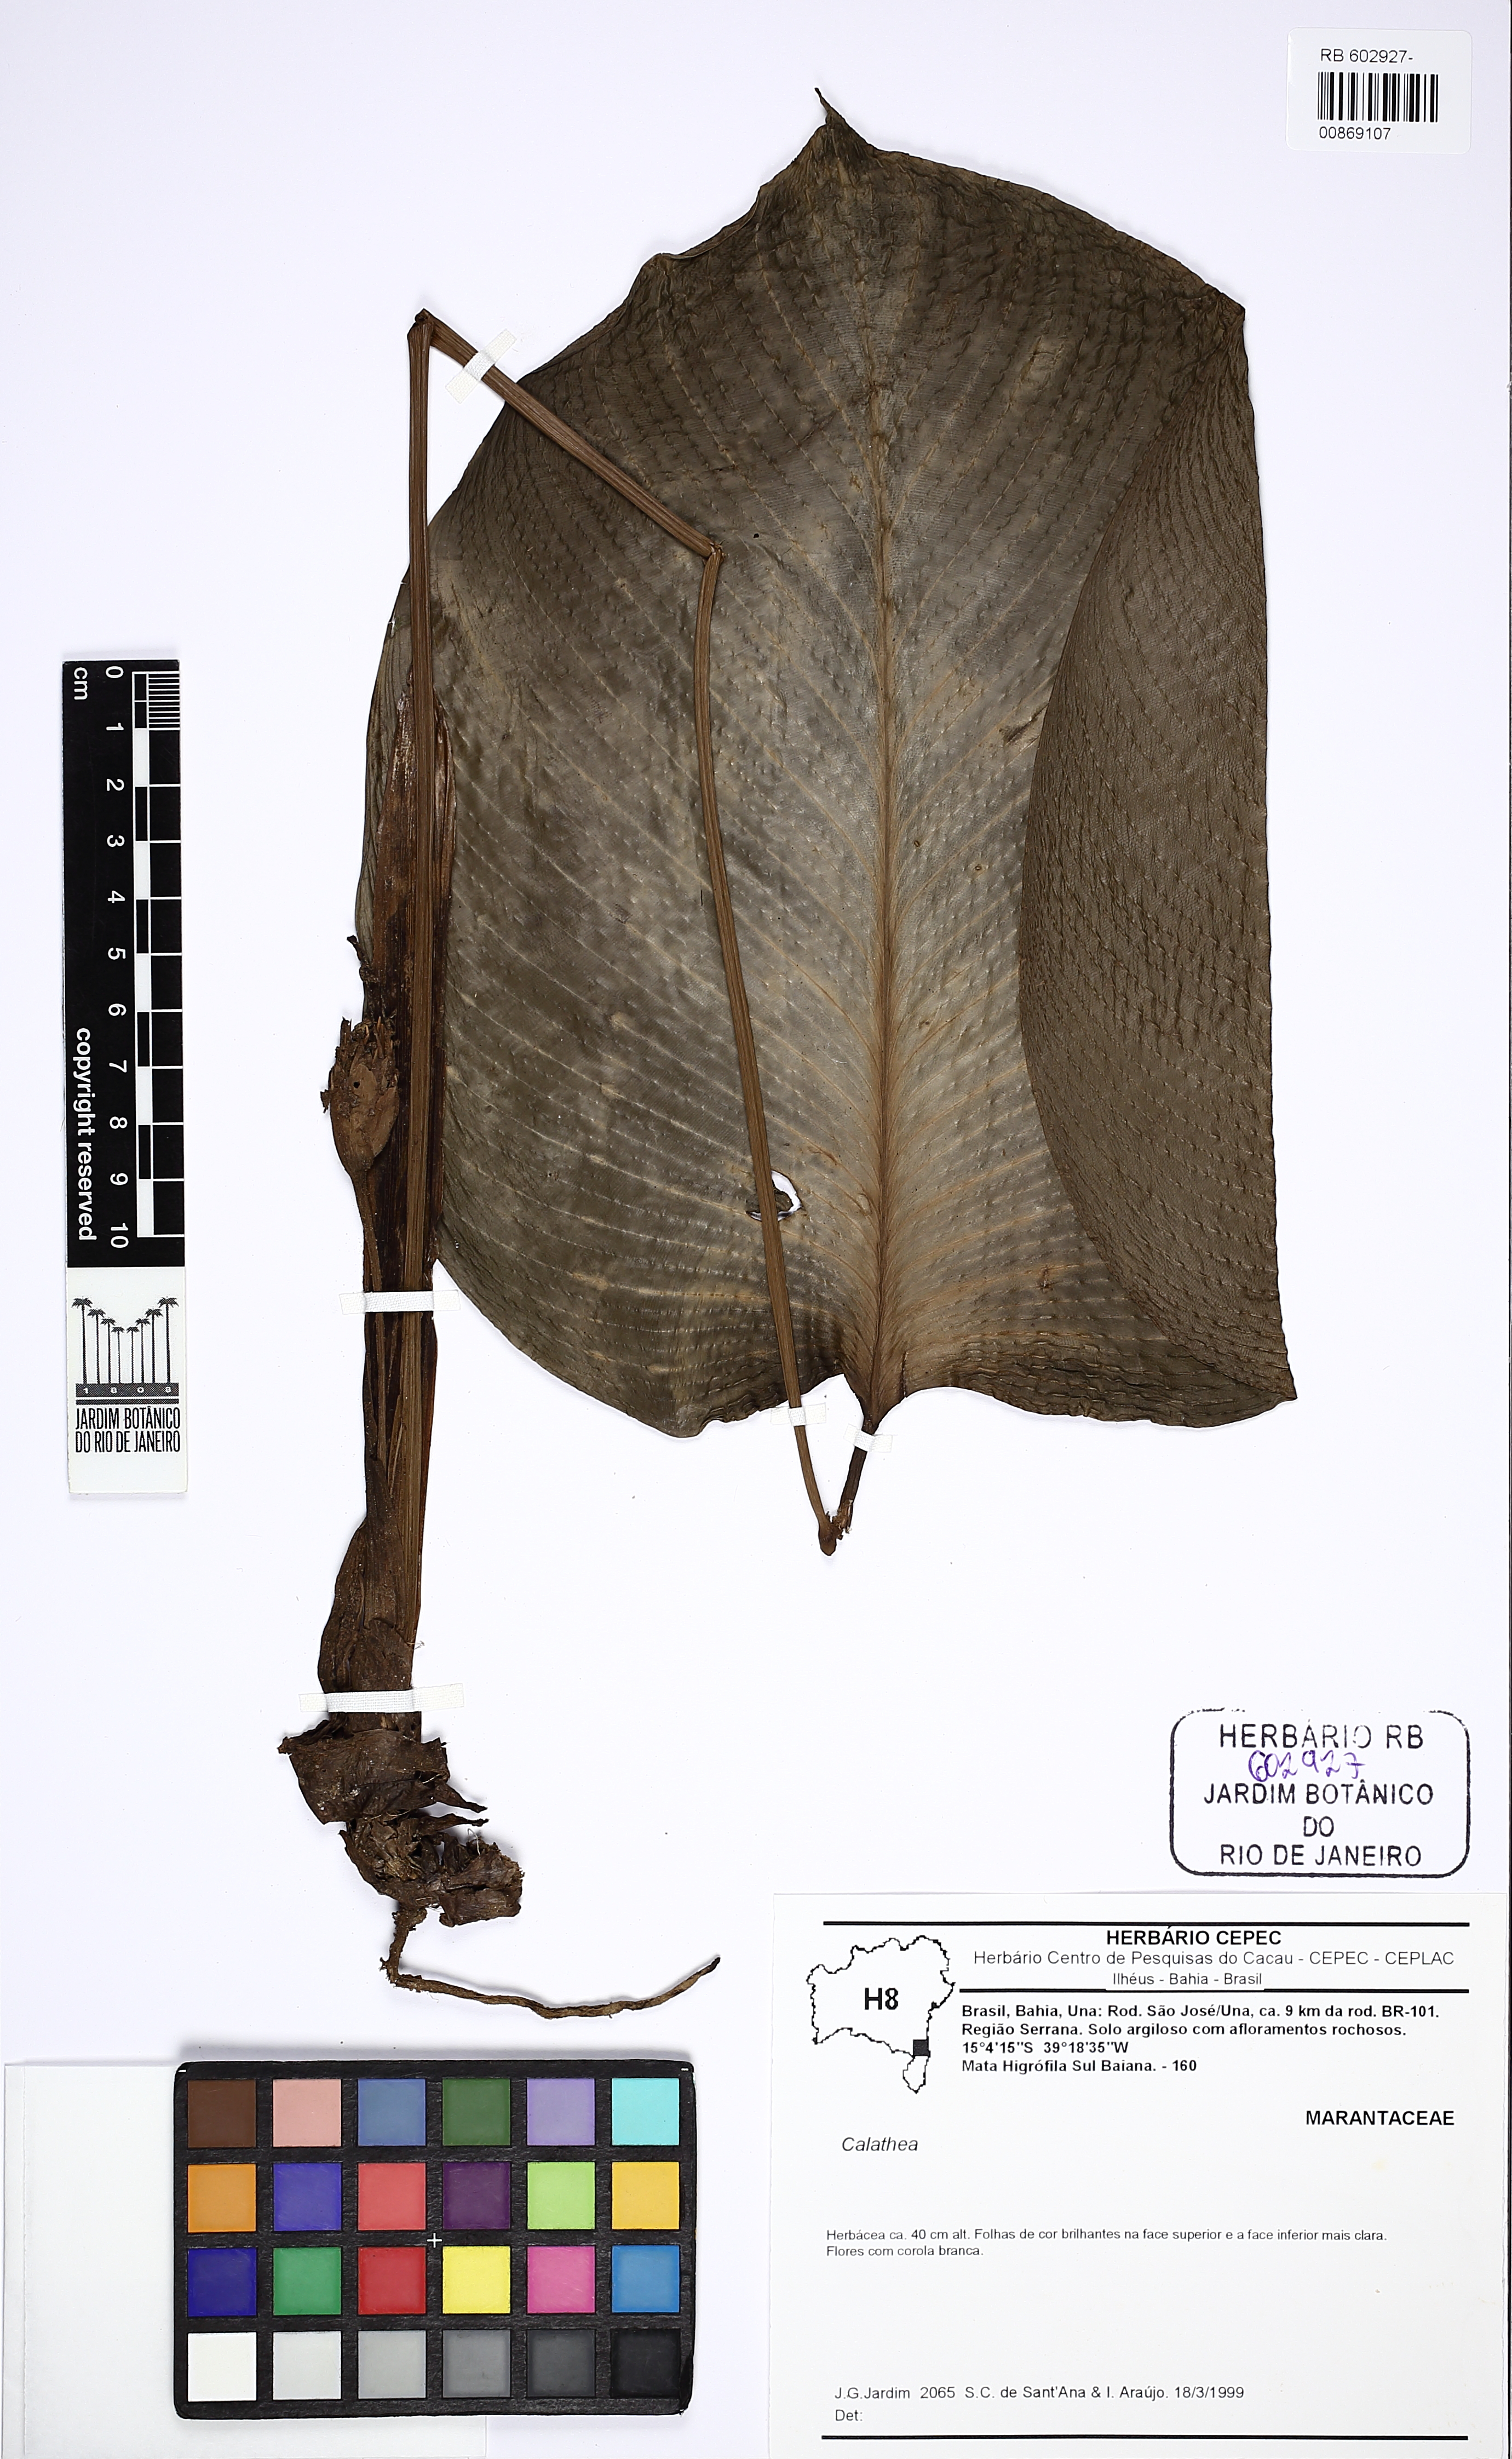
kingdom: Plantae
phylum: Tracheophyta
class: Liliopsida
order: Zingiberales
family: Marantaceae
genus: Calathea
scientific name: Calathea
